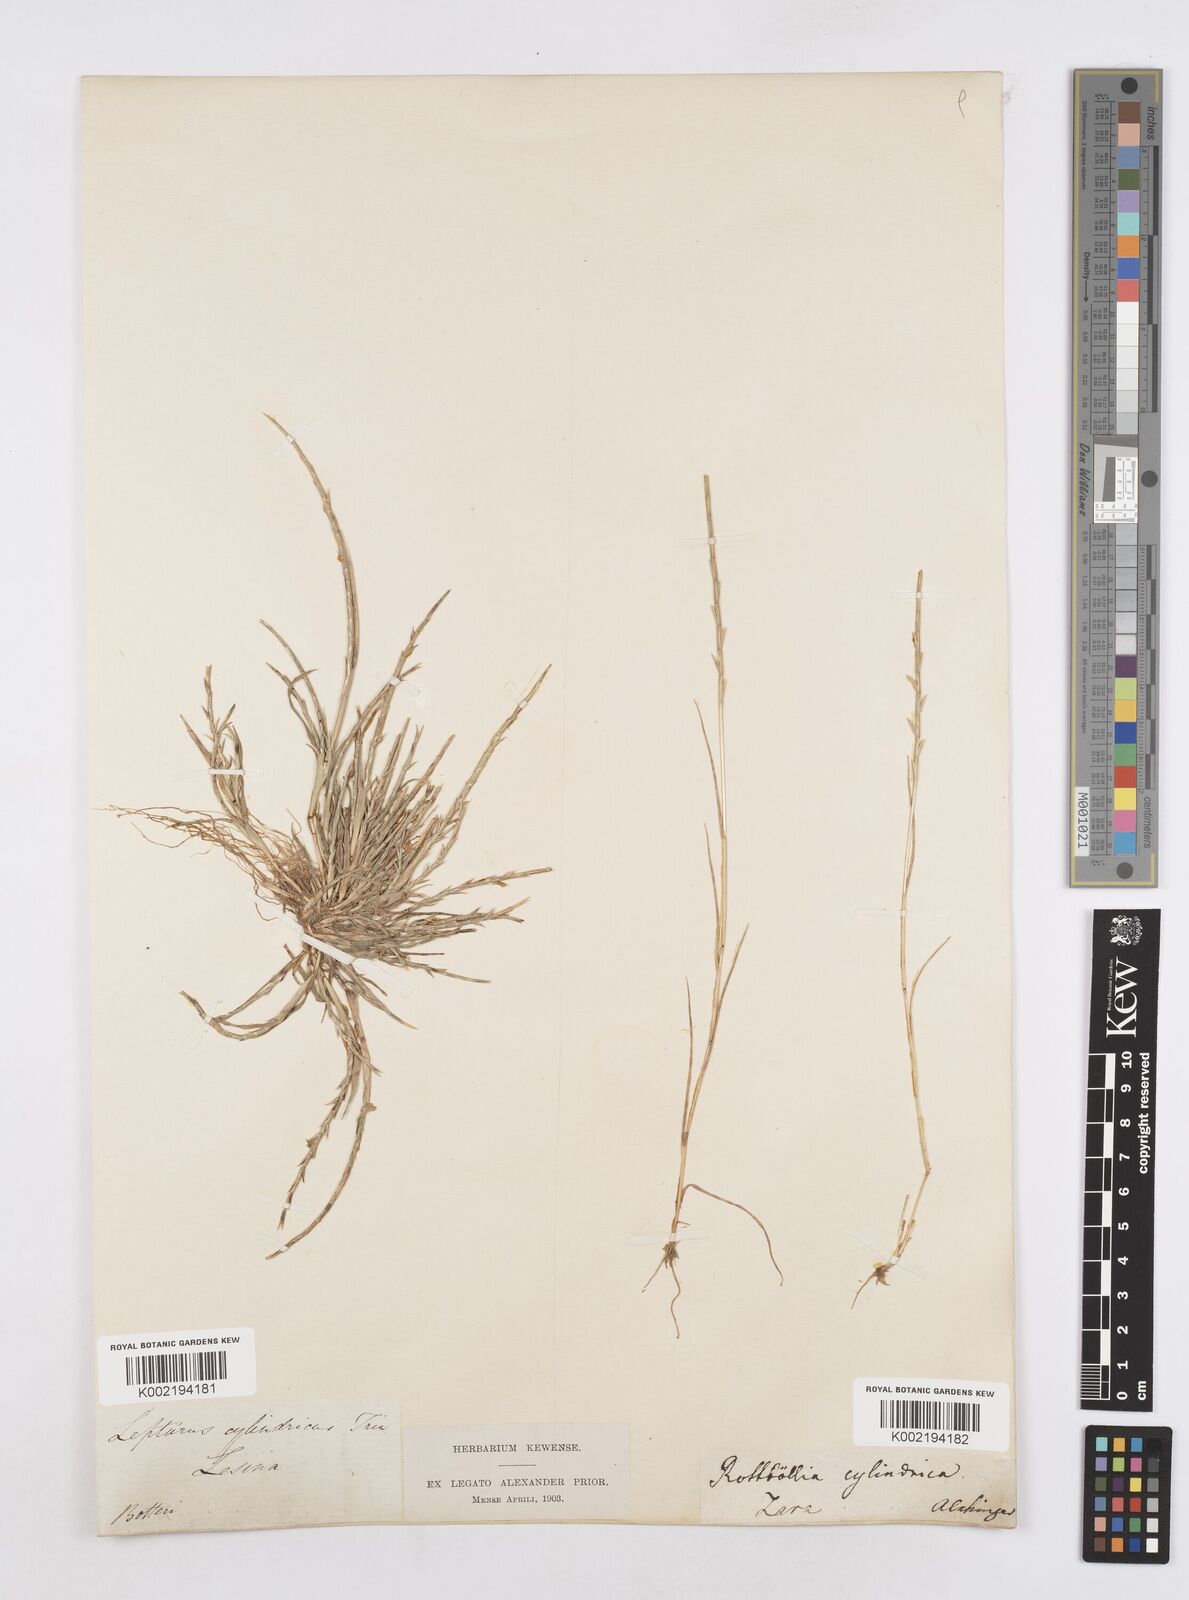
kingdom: Plantae
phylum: Tracheophyta
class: Liliopsida
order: Poales
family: Poaceae
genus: Parapholis
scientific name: Parapholis cylindrica
